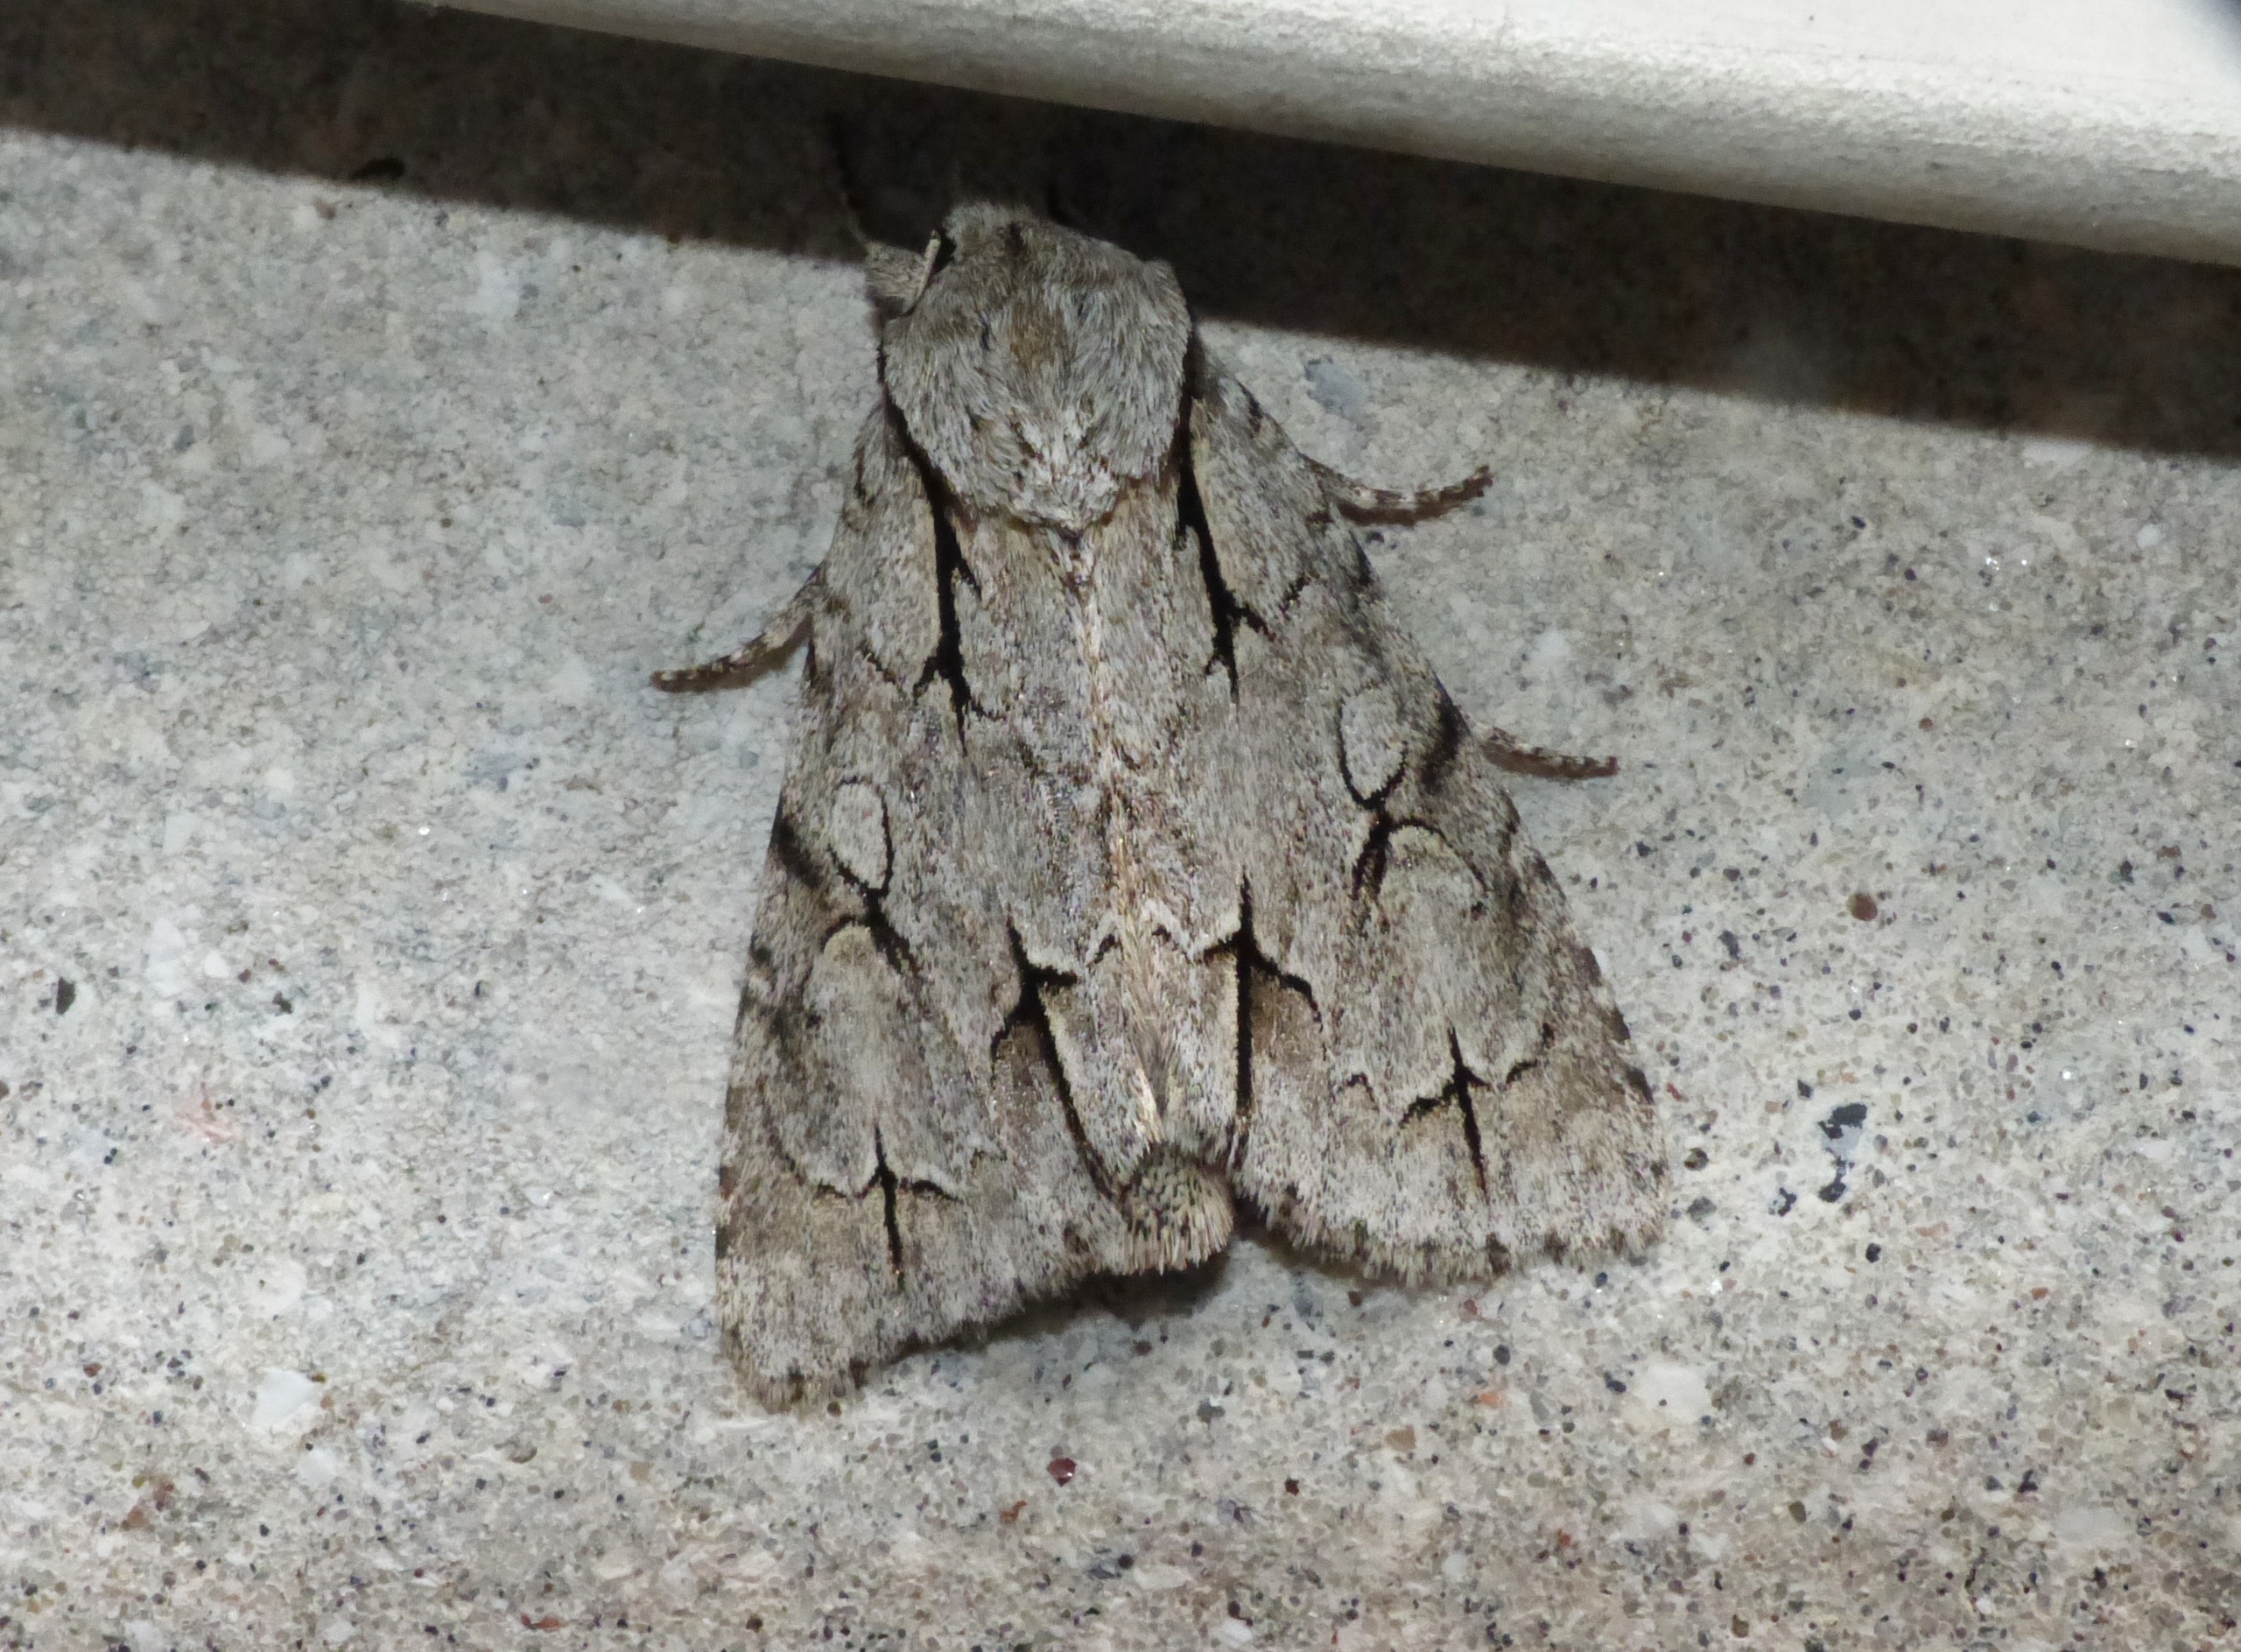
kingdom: Animalia
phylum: Arthropoda
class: Insecta
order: Lepidoptera
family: Noctuidae
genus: Acronicta
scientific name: Acronicta psi
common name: Psi-ugle
